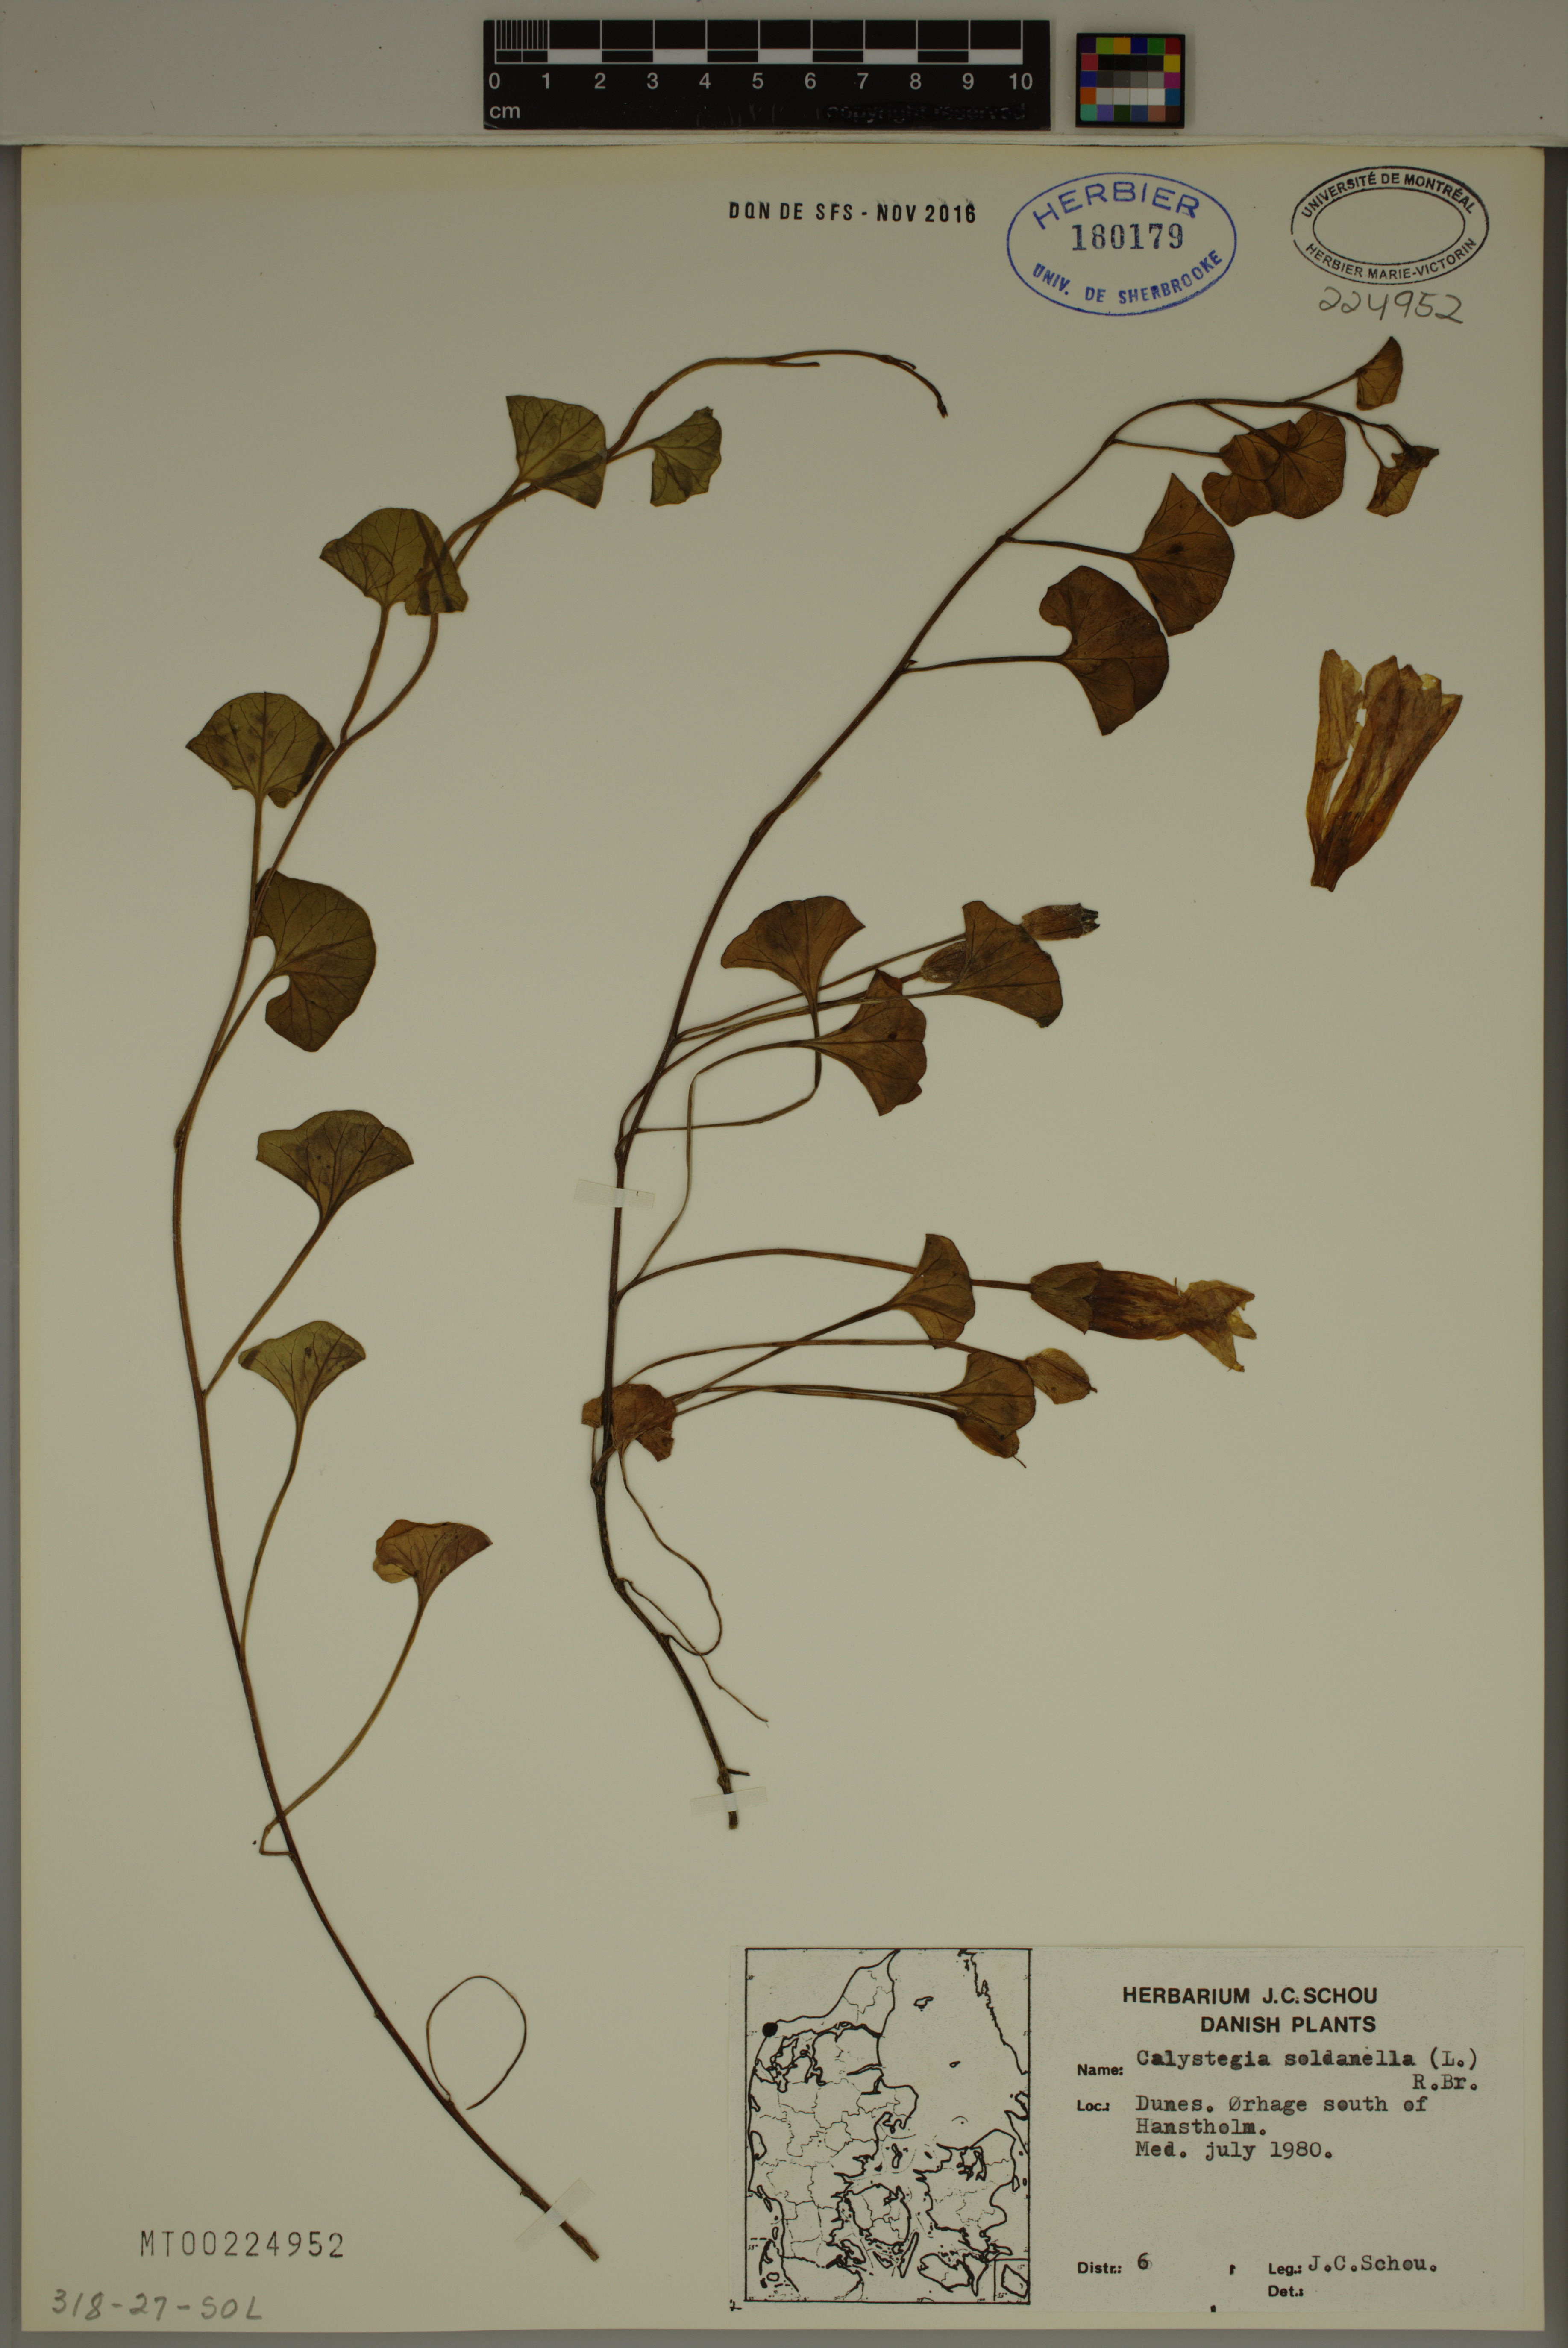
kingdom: Plantae
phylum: Tracheophyta
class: Magnoliopsida
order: Solanales
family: Convolvulaceae
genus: Calystegia
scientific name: Calystegia soldanella
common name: Sea bindweed
